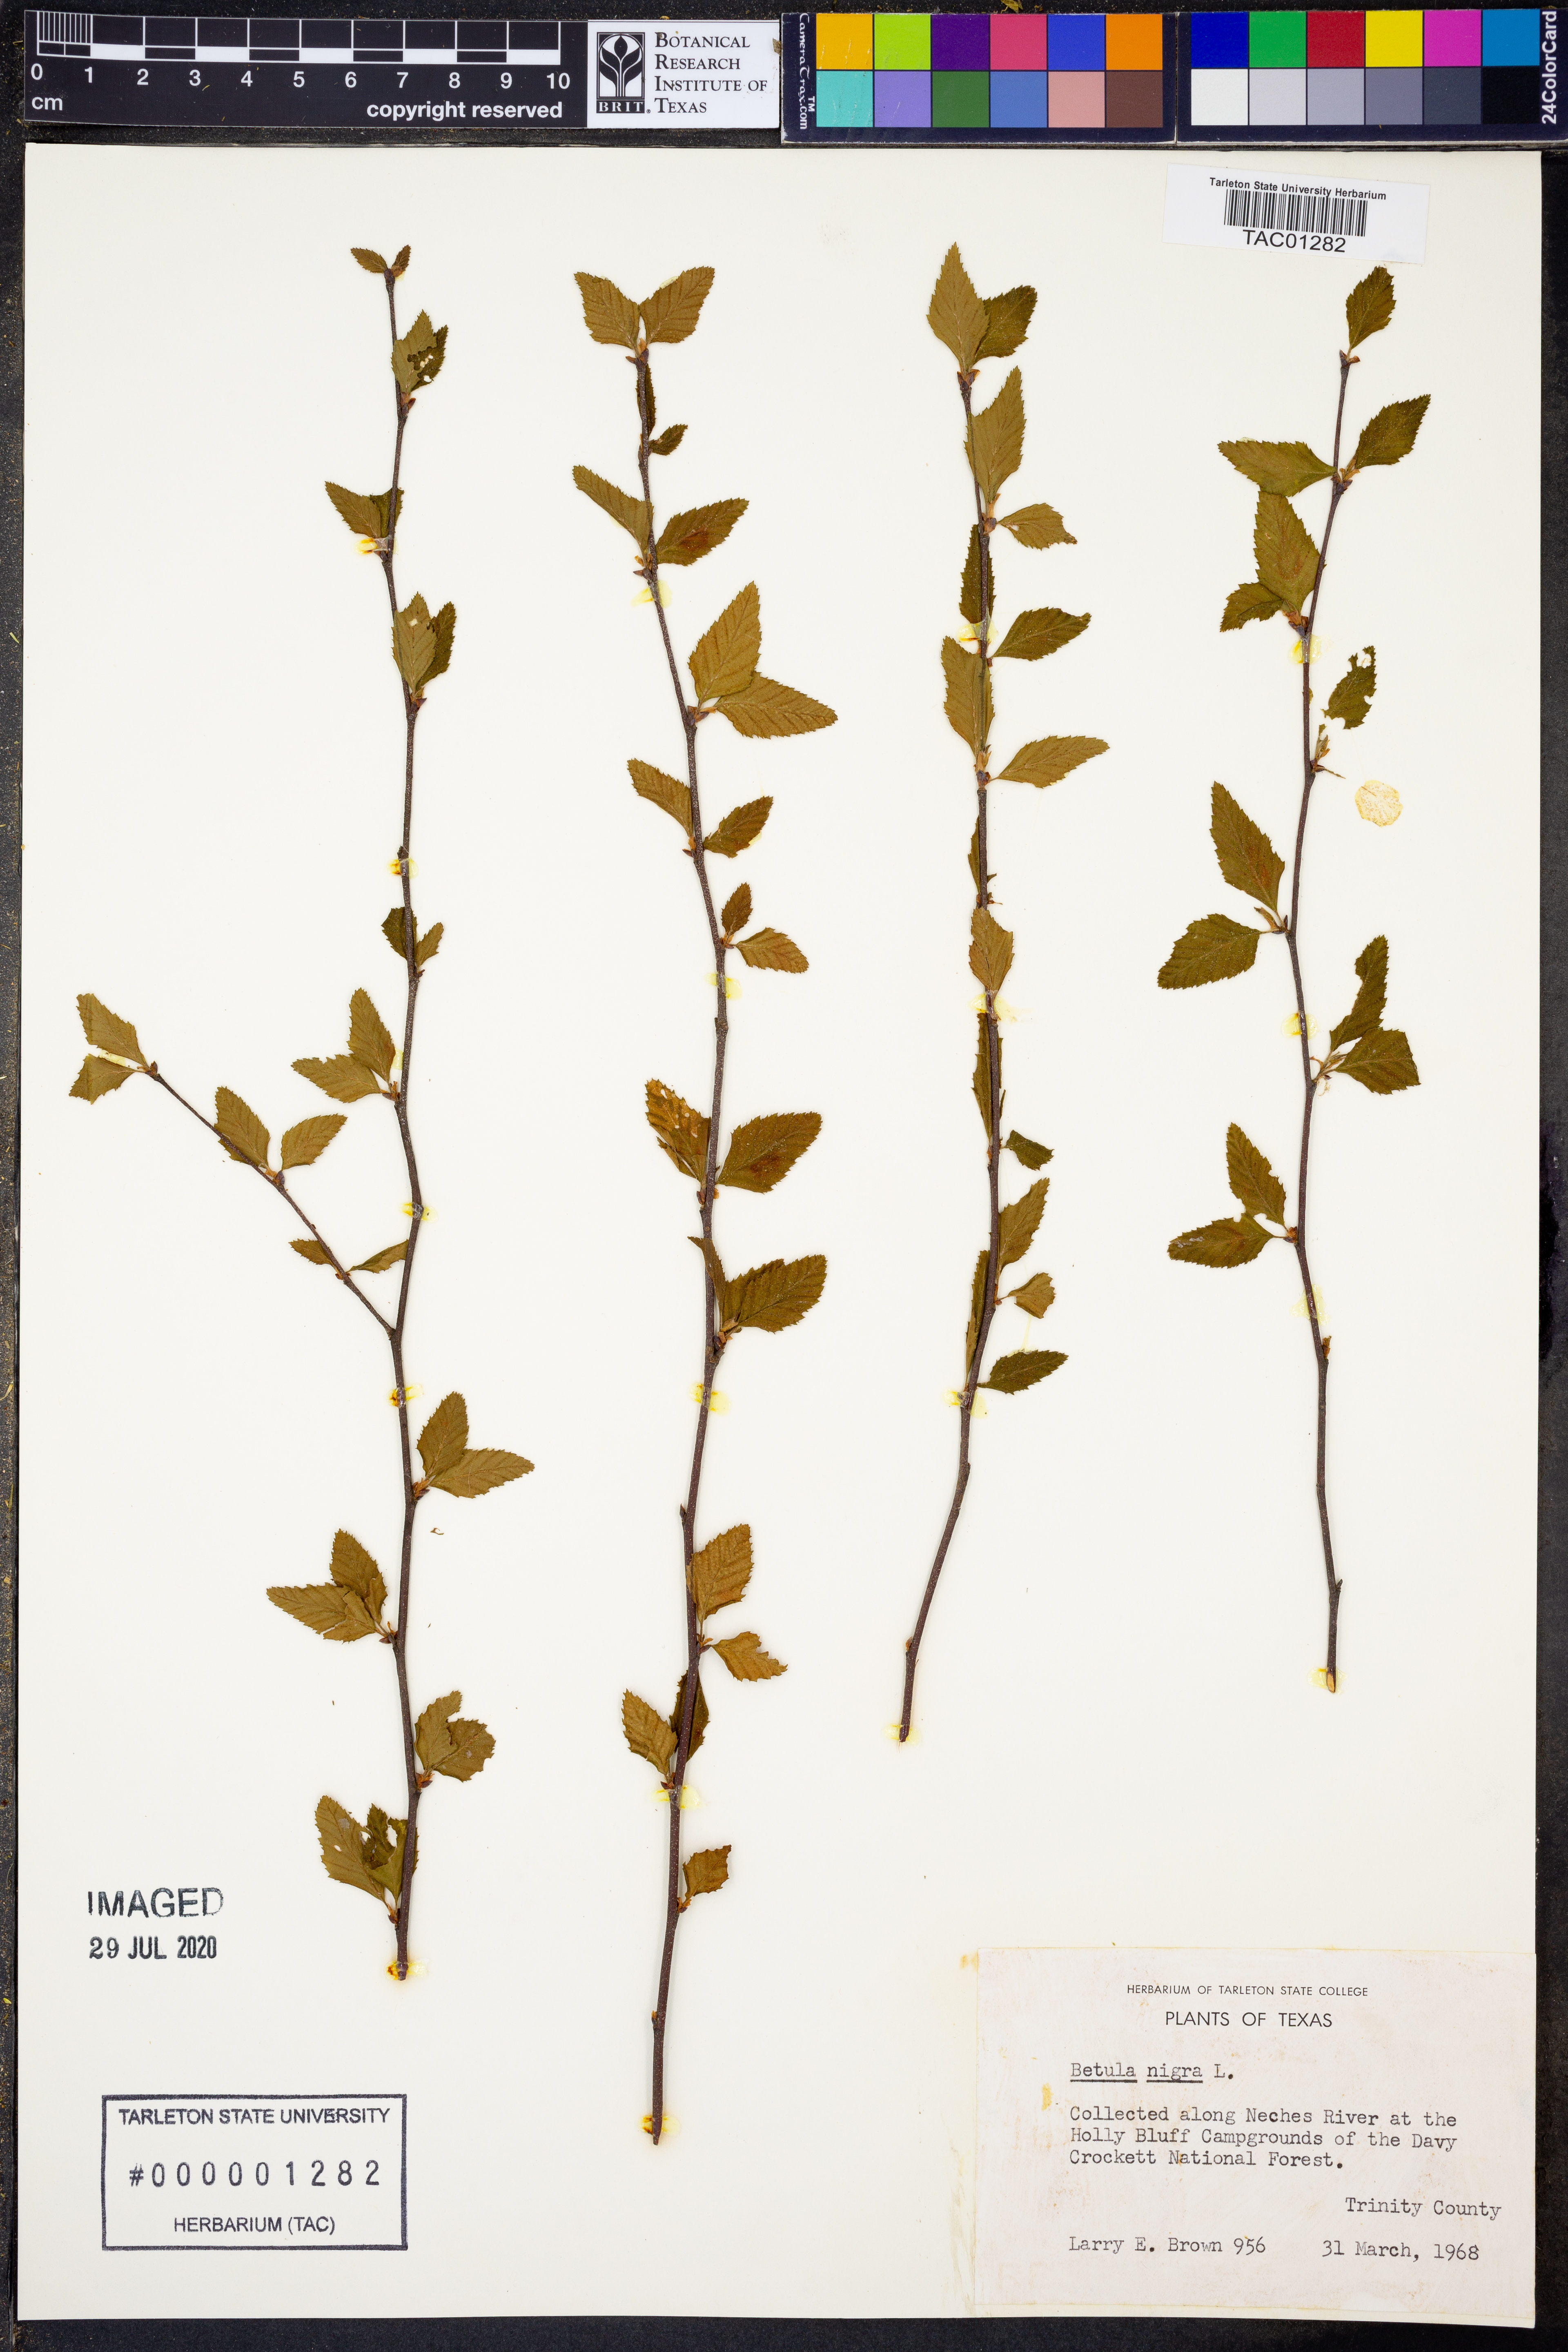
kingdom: Plantae
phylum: Tracheophyta
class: Magnoliopsida
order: Fagales
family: Betulaceae
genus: Betula
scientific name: Betula nigra
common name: Black birch
